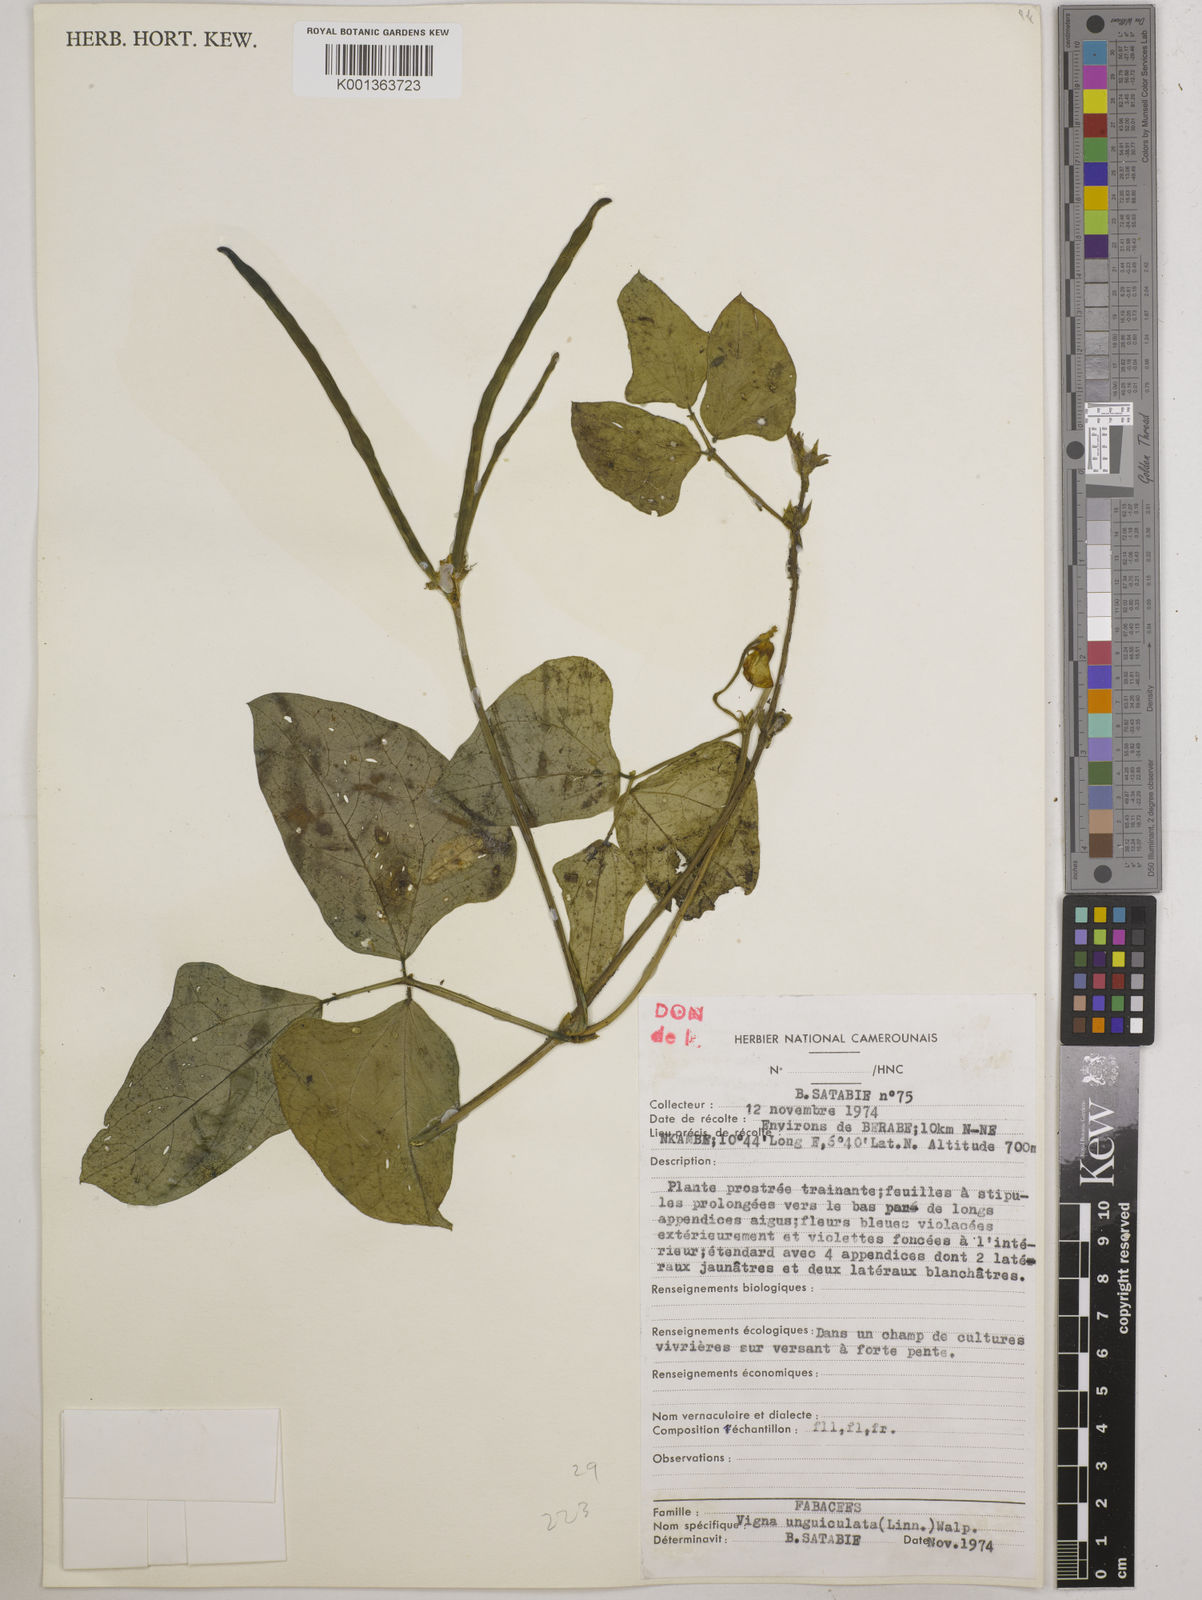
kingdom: Plantae
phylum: Tracheophyta
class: Magnoliopsida
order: Fabales
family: Fabaceae
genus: Vigna
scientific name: Vigna unguiculata
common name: Cowpea
